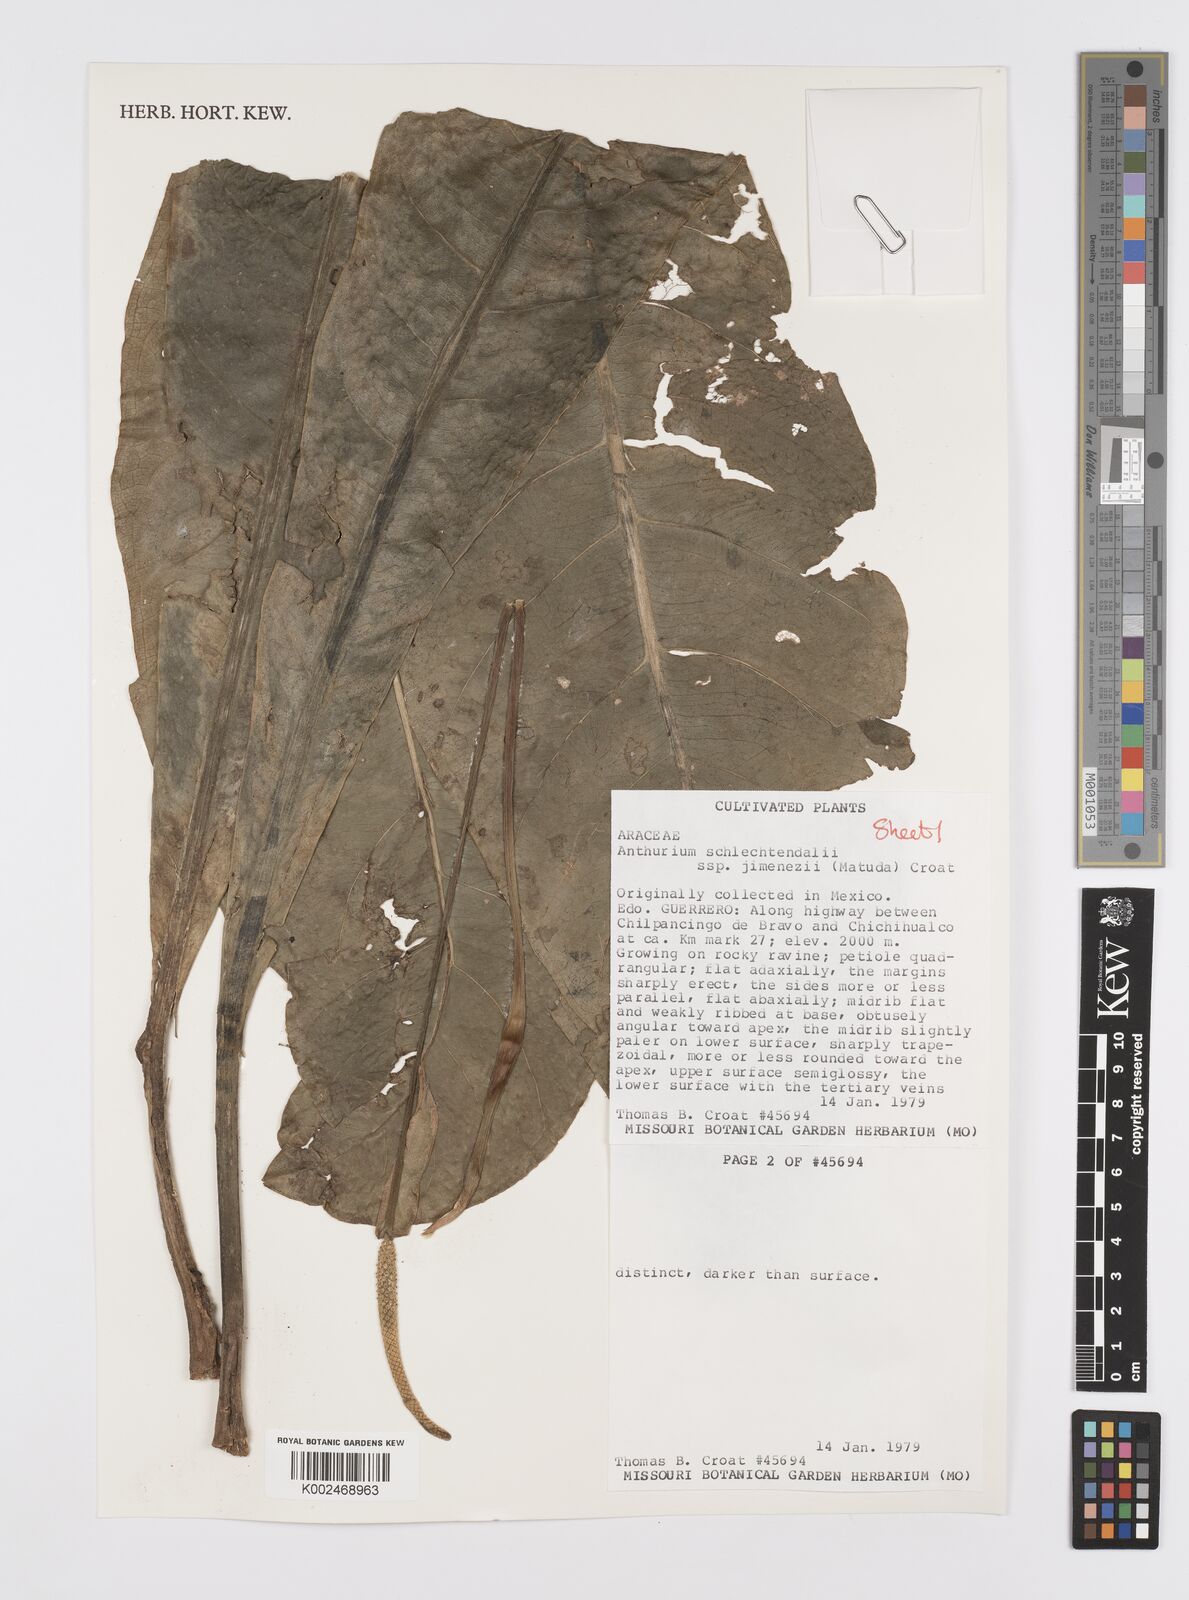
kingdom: Plantae
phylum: Tracheophyta
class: Liliopsida
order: Alismatales
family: Araceae
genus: Anthurium
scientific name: Anthurium schlechtendalii
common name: Laceleaf
